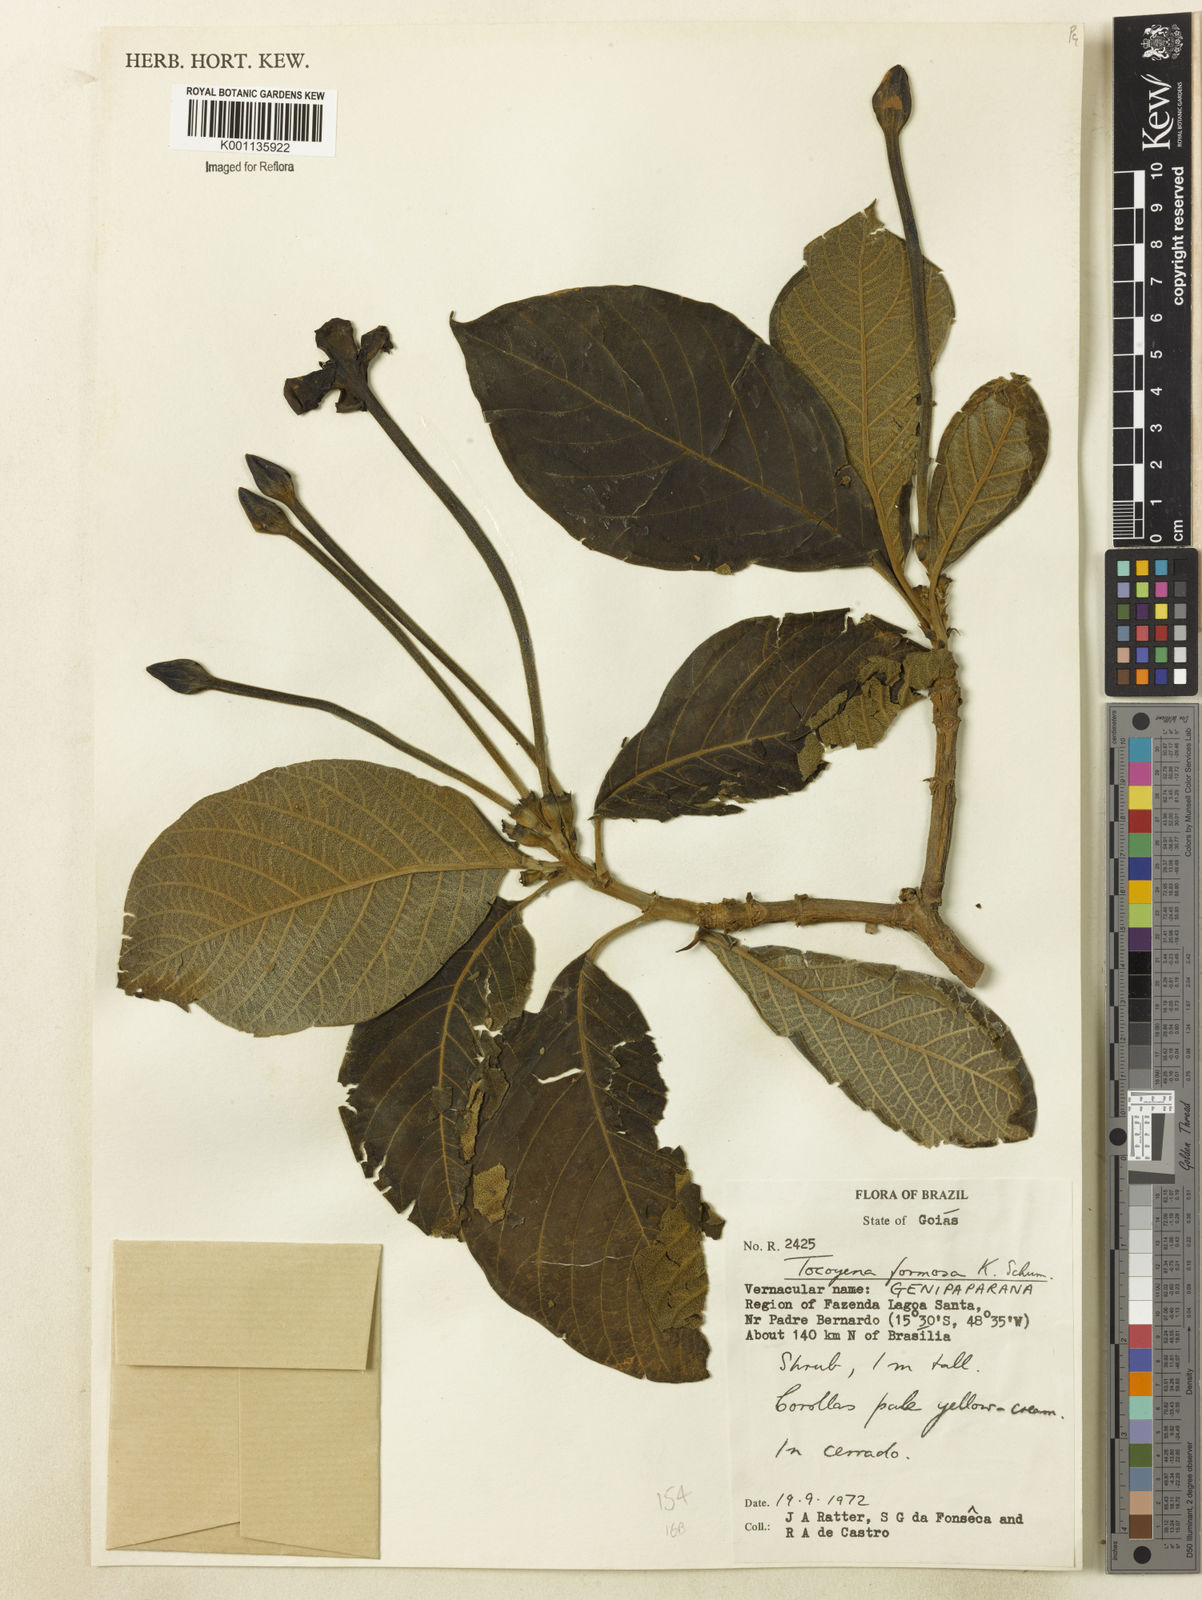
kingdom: Plantae
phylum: Tracheophyta
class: Magnoliopsida
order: Gentianales
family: Rubiaceae
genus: Tocoyena
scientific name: Tocoyena formosa
